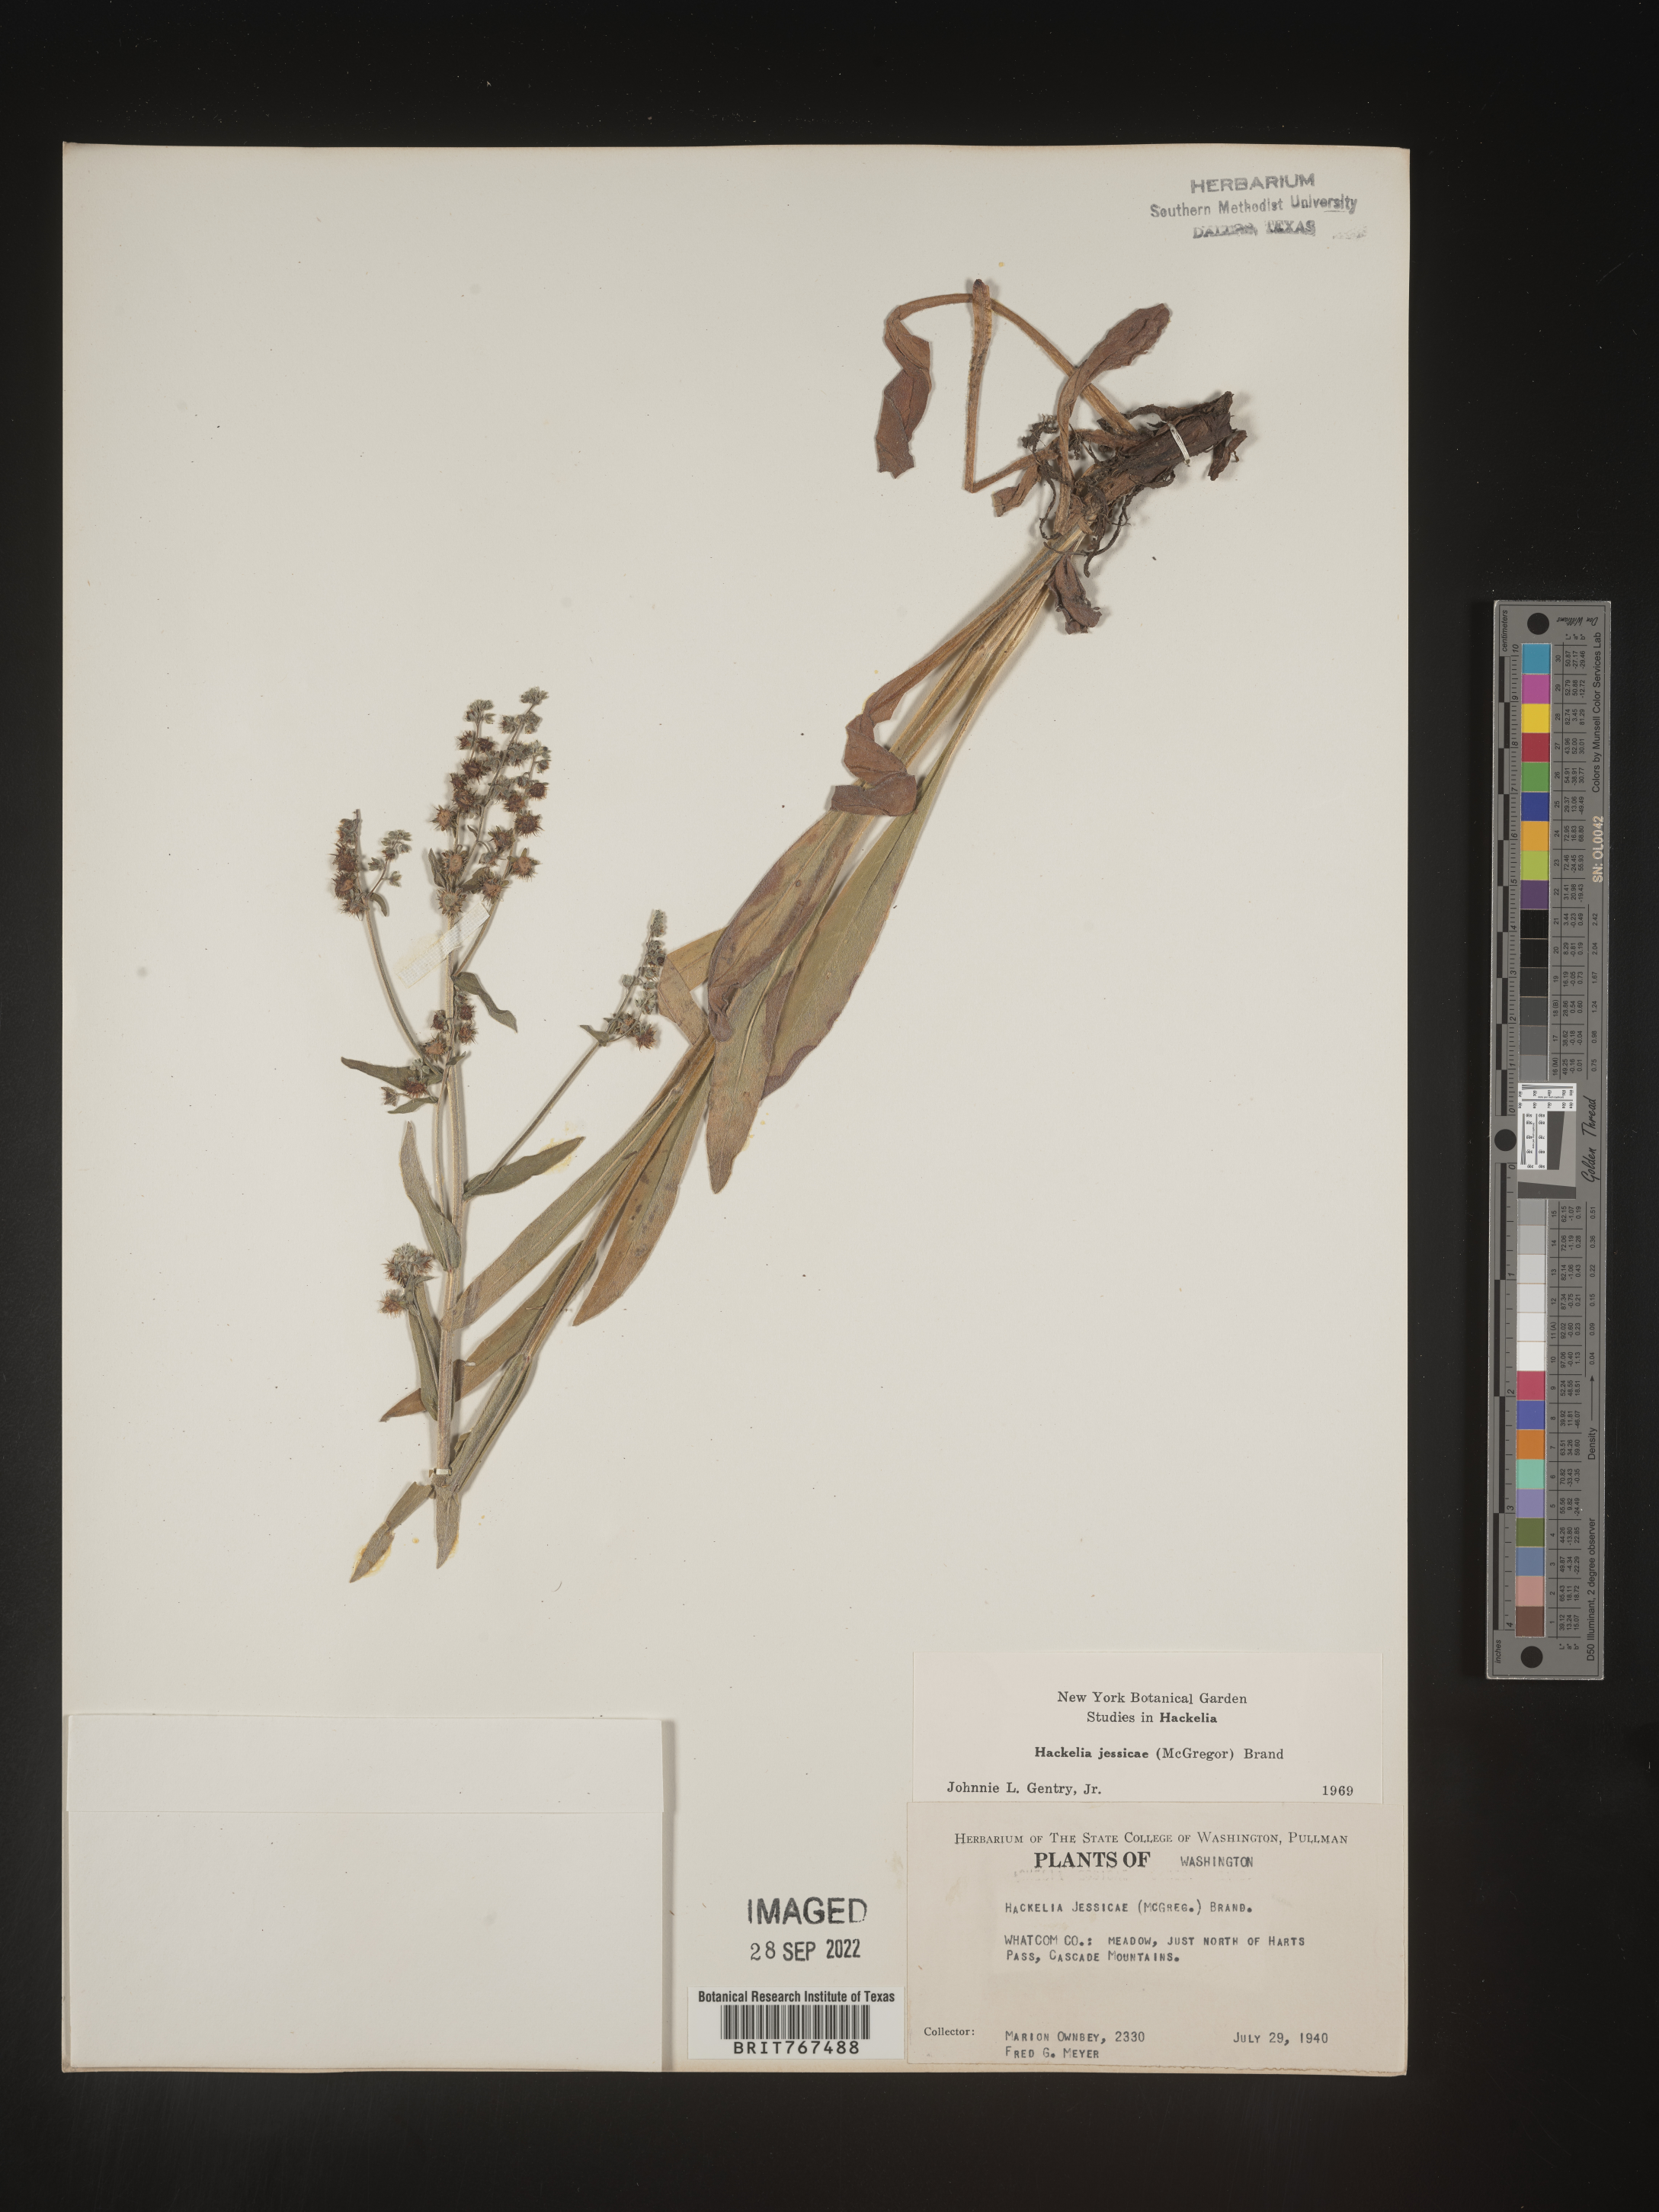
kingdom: Plantae
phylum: Tracheophyta
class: Magnoliopsida
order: Boraginales
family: Boraginaceae
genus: Hackelia
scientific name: Hackelia micrantha
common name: Meadow stickseed
